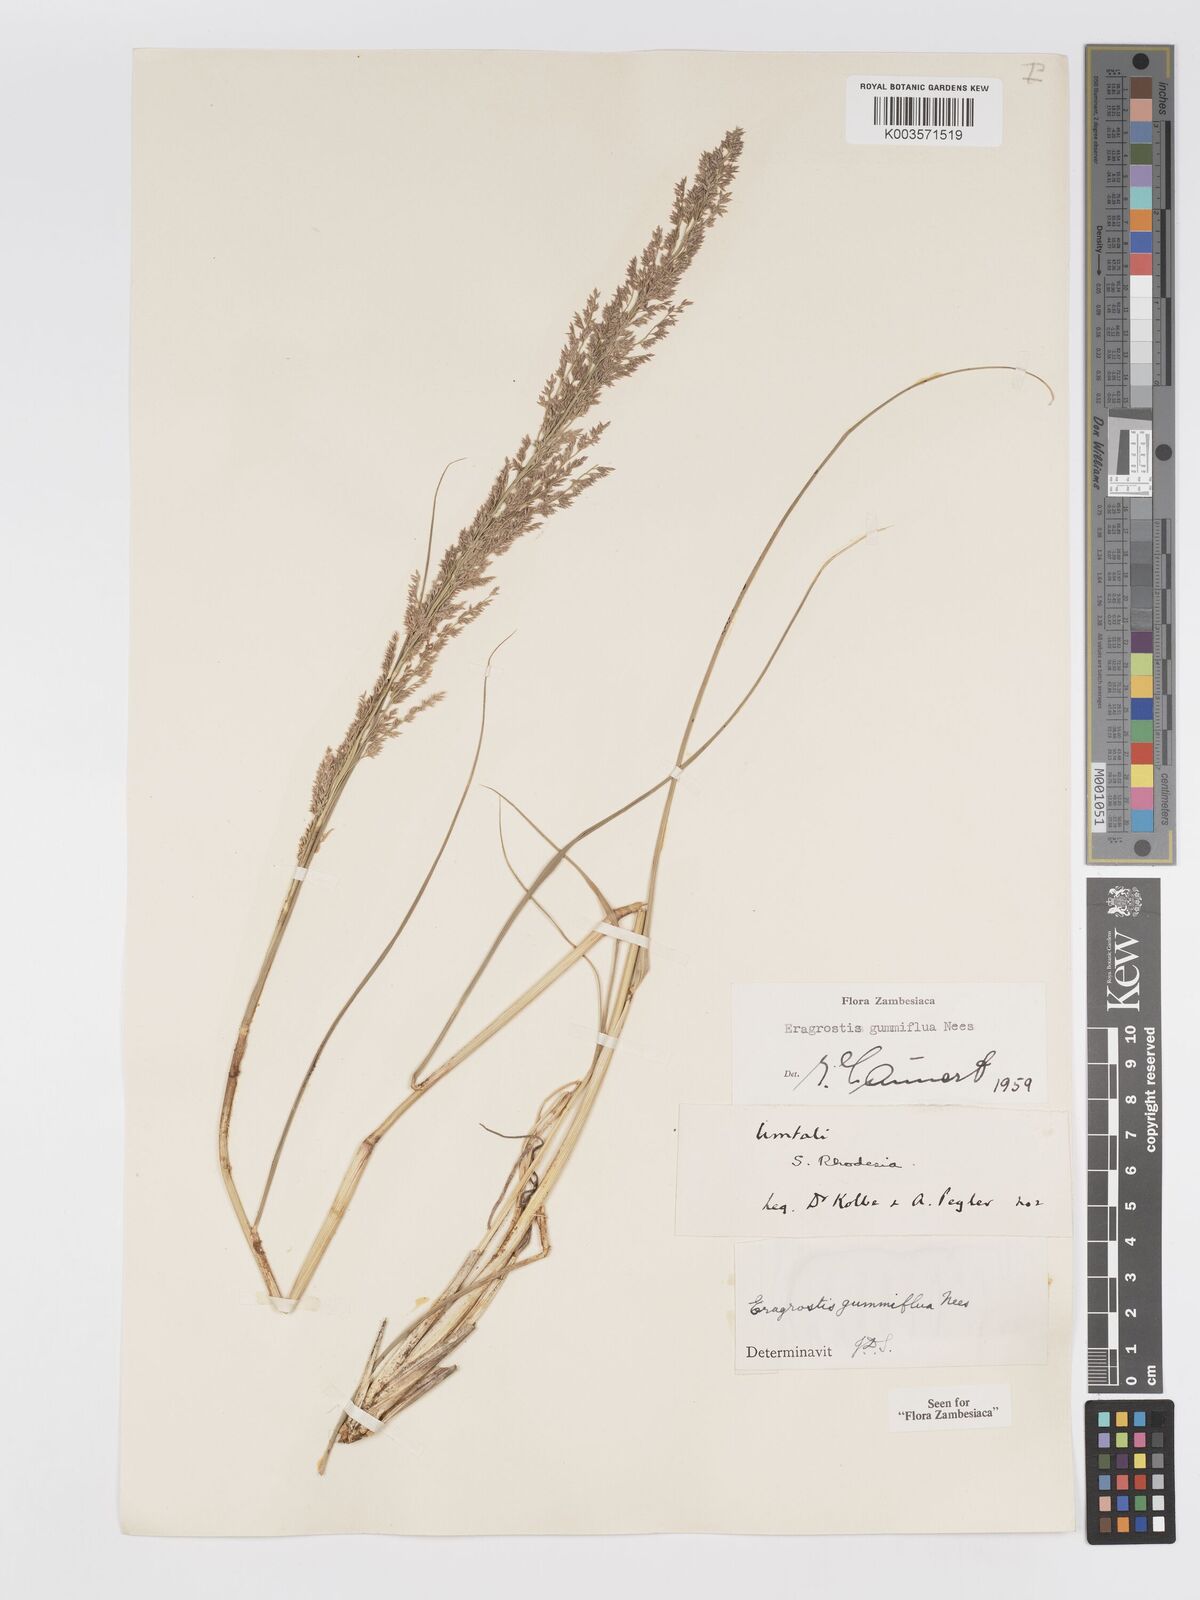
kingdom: Plantae
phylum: Tracheophyta
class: Liliopsida
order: Poales
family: Poaceae
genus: Eragrostis
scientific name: Eragrostis gummiflua
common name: Gum grass
